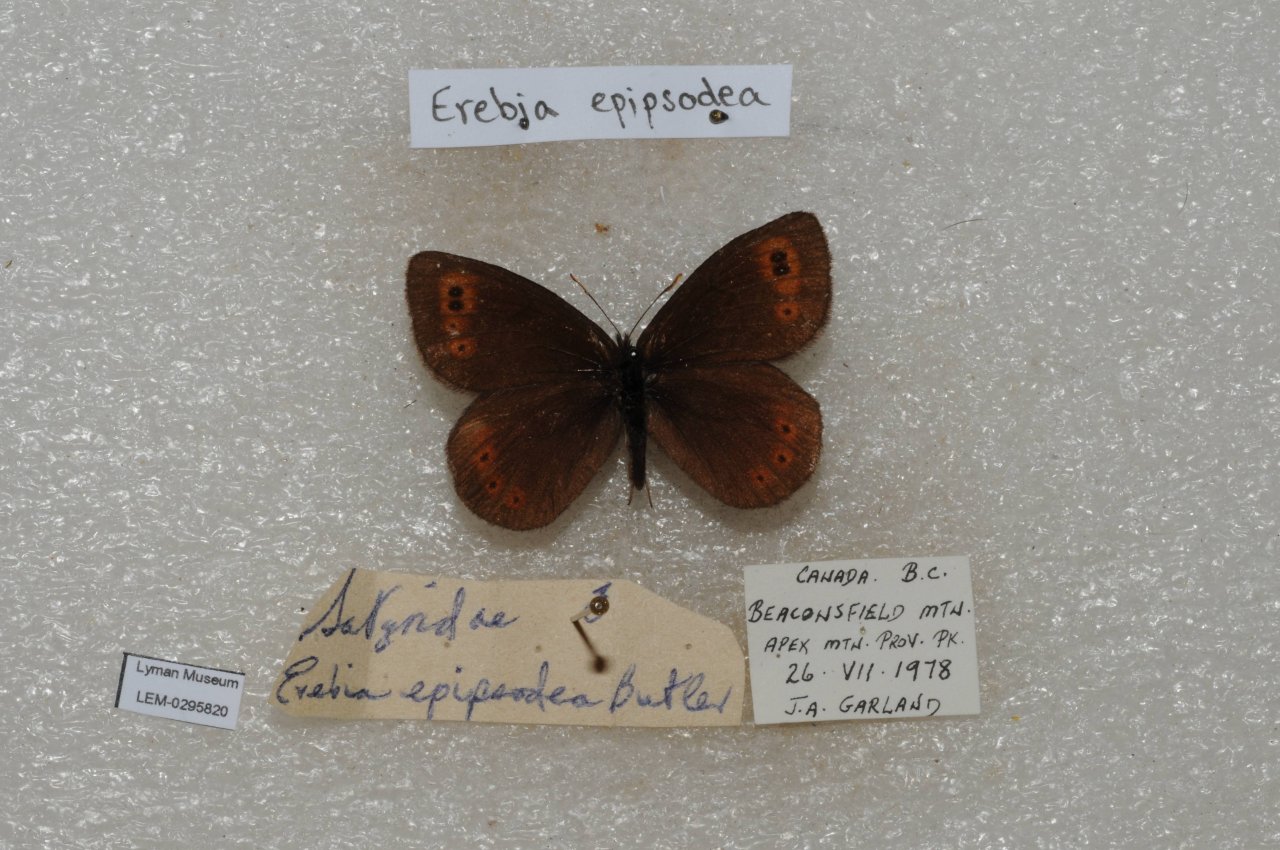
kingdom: Animalia
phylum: Arthropoda
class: Insecta
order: Lepidoptera
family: Nymphalidae
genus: Erebia
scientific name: Erebia epipsodea
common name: Common Alpine
